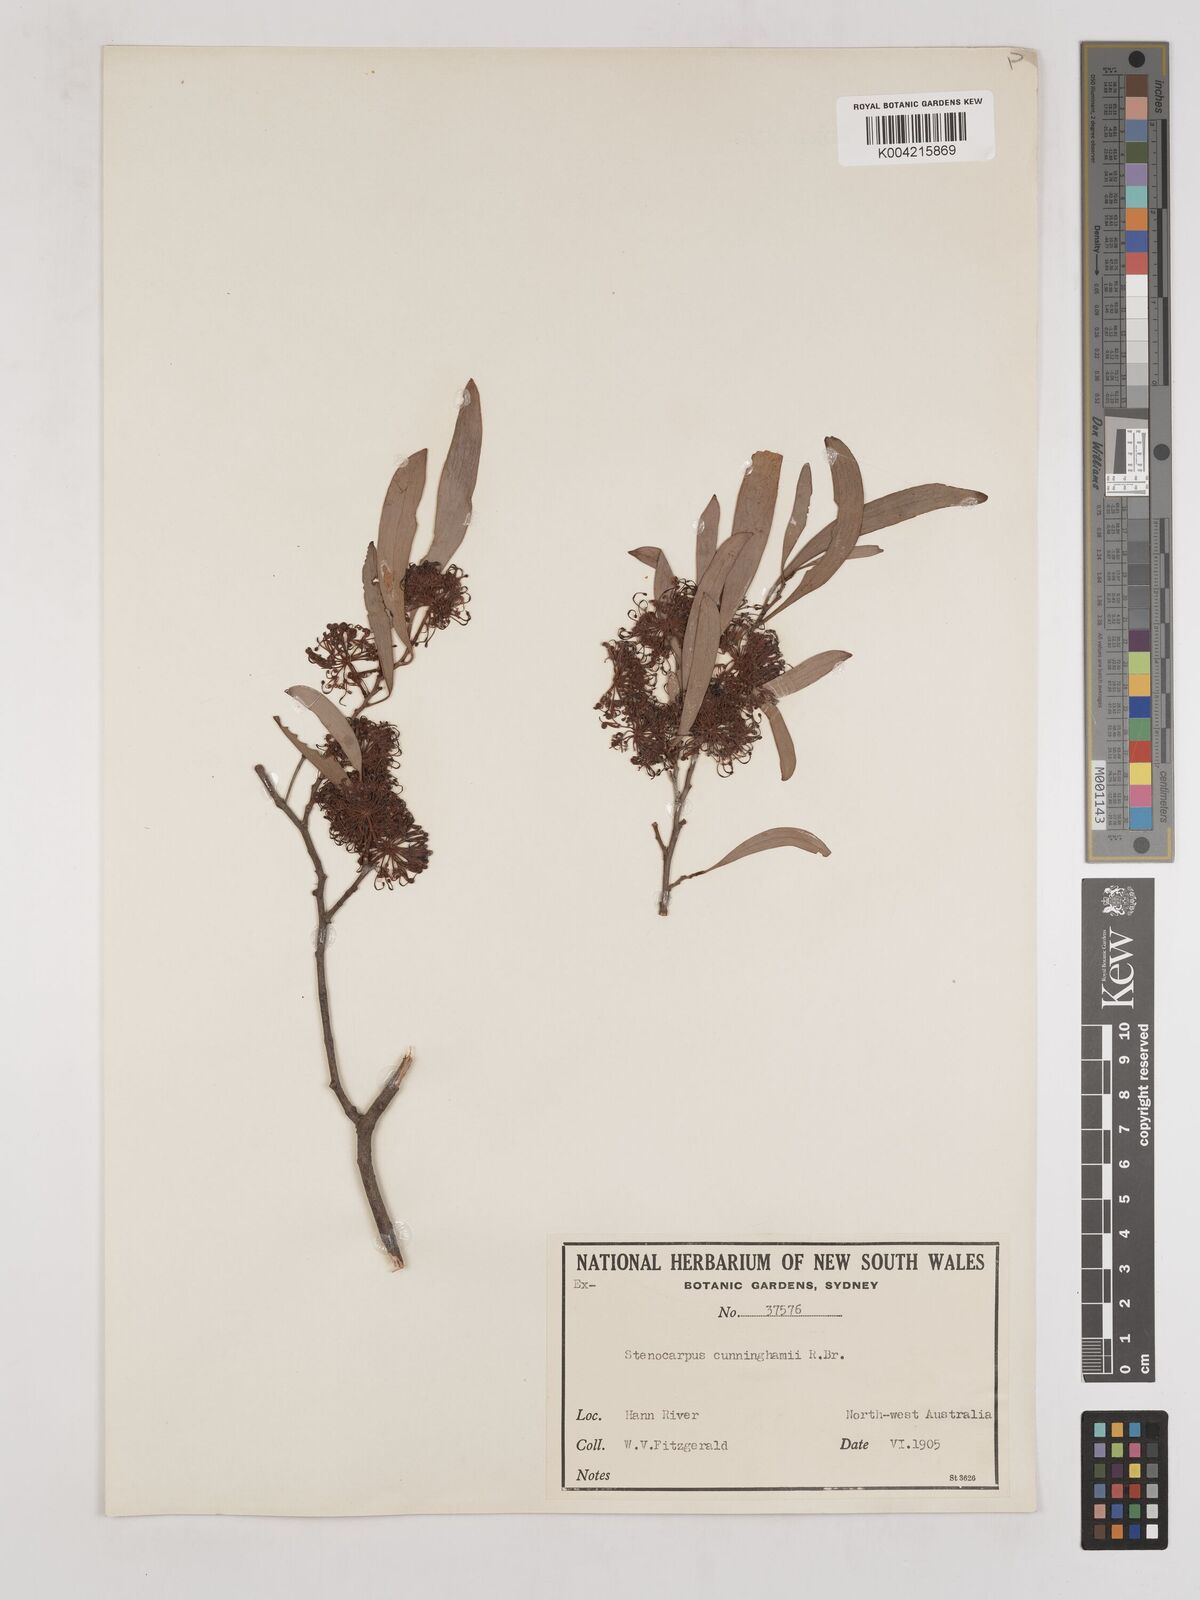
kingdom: Plantae
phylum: Tracheophyta
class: Magnoliopsida
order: Proteales
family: Proteaceae
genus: Stenocarpus
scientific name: Stenocarpus cunninghamii
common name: Little wheelbush
